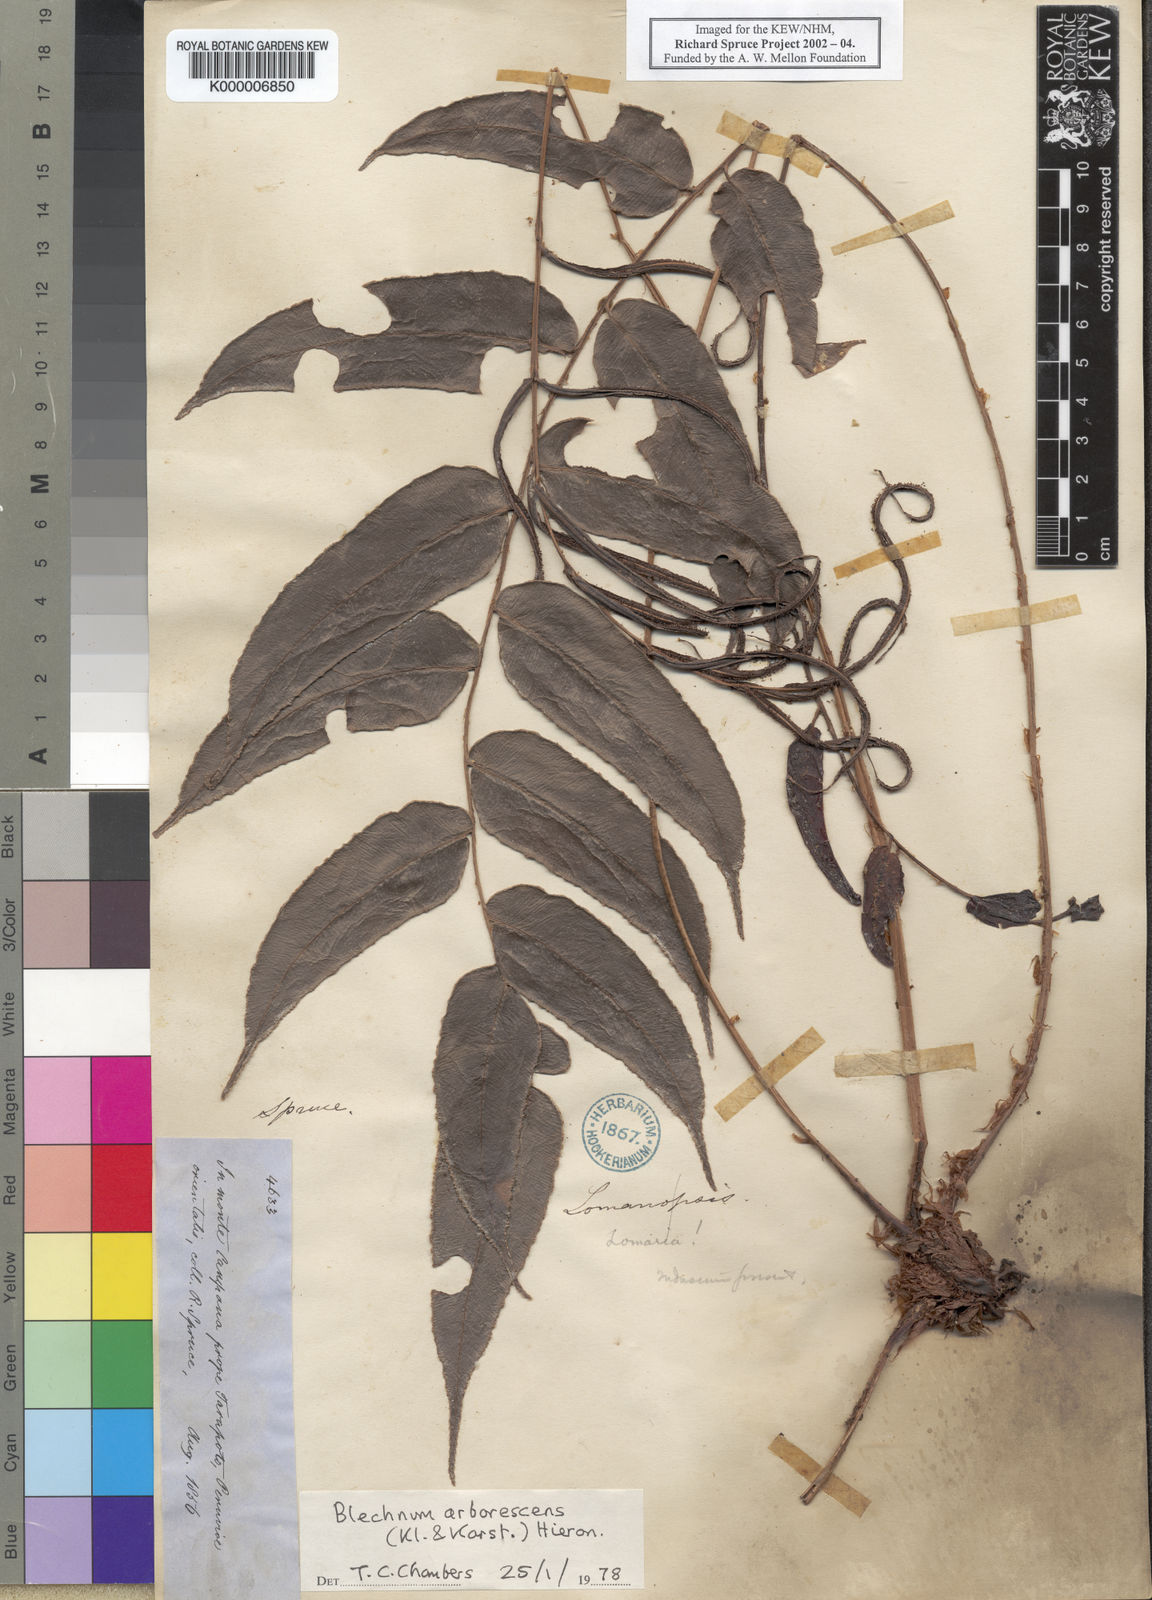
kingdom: Plantae
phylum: Tracheophyta
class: Polypodiopsida
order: Polypodiales
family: Blechnaceae
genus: Parablechnum
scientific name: Parablechnum cordatum
